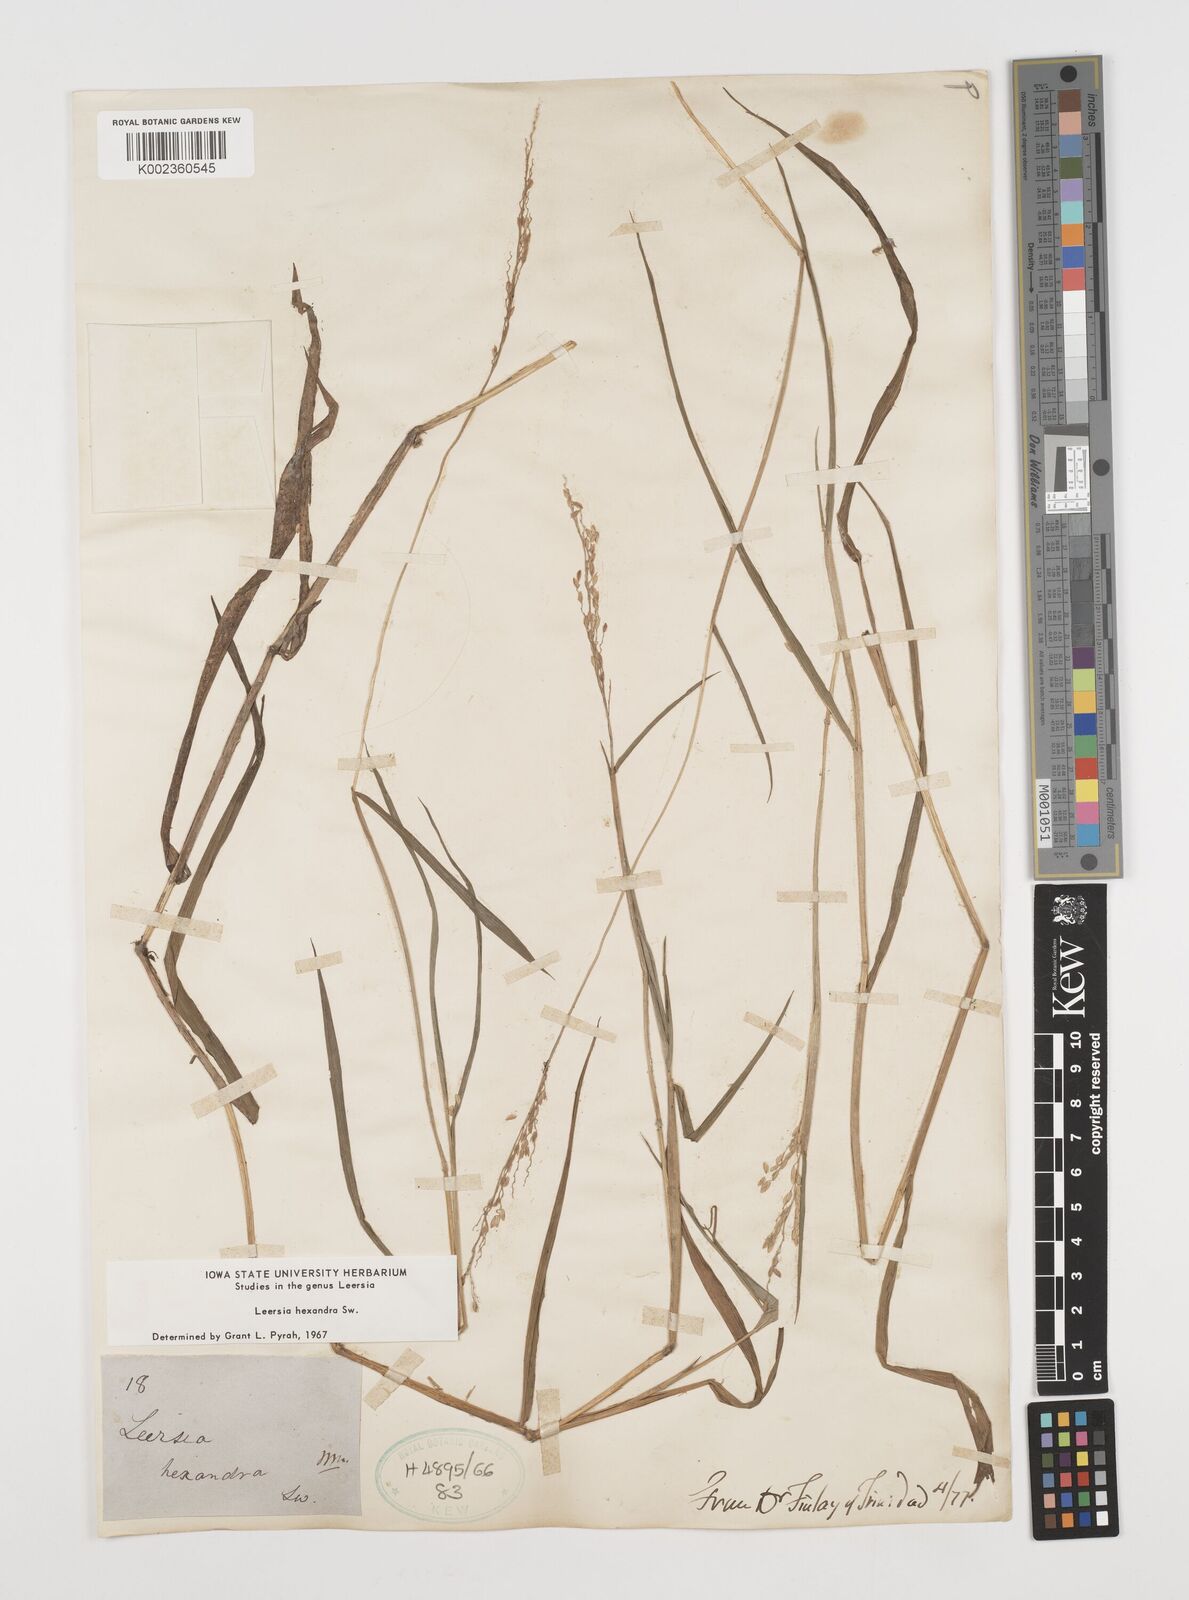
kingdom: Plantae
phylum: Tracheophyta
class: Liliopsida
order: Poales
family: Poaceae
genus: Leersia
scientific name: Leersia hexandra
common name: Southern cut grass
